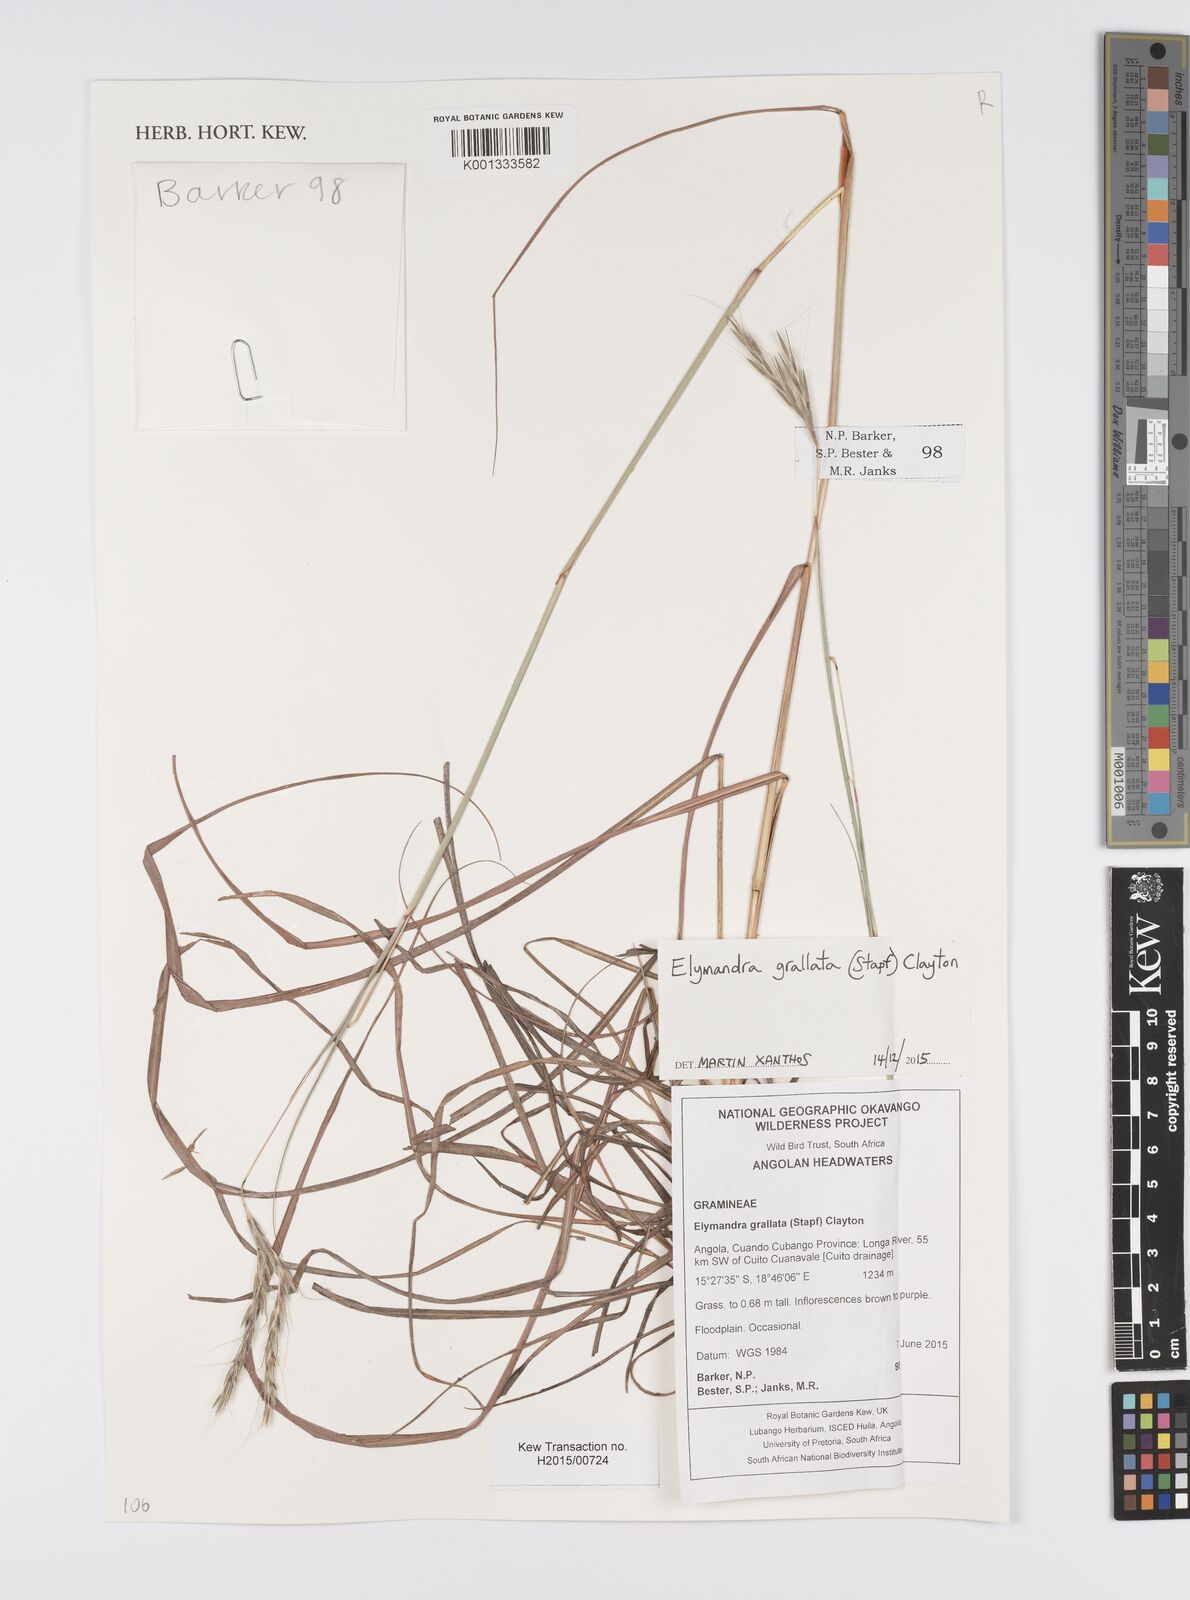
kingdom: Plantae
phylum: Tracheophyta
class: Liliopsida
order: Poales
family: Poaceae
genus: Elymandra
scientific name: Elymandra grallata
